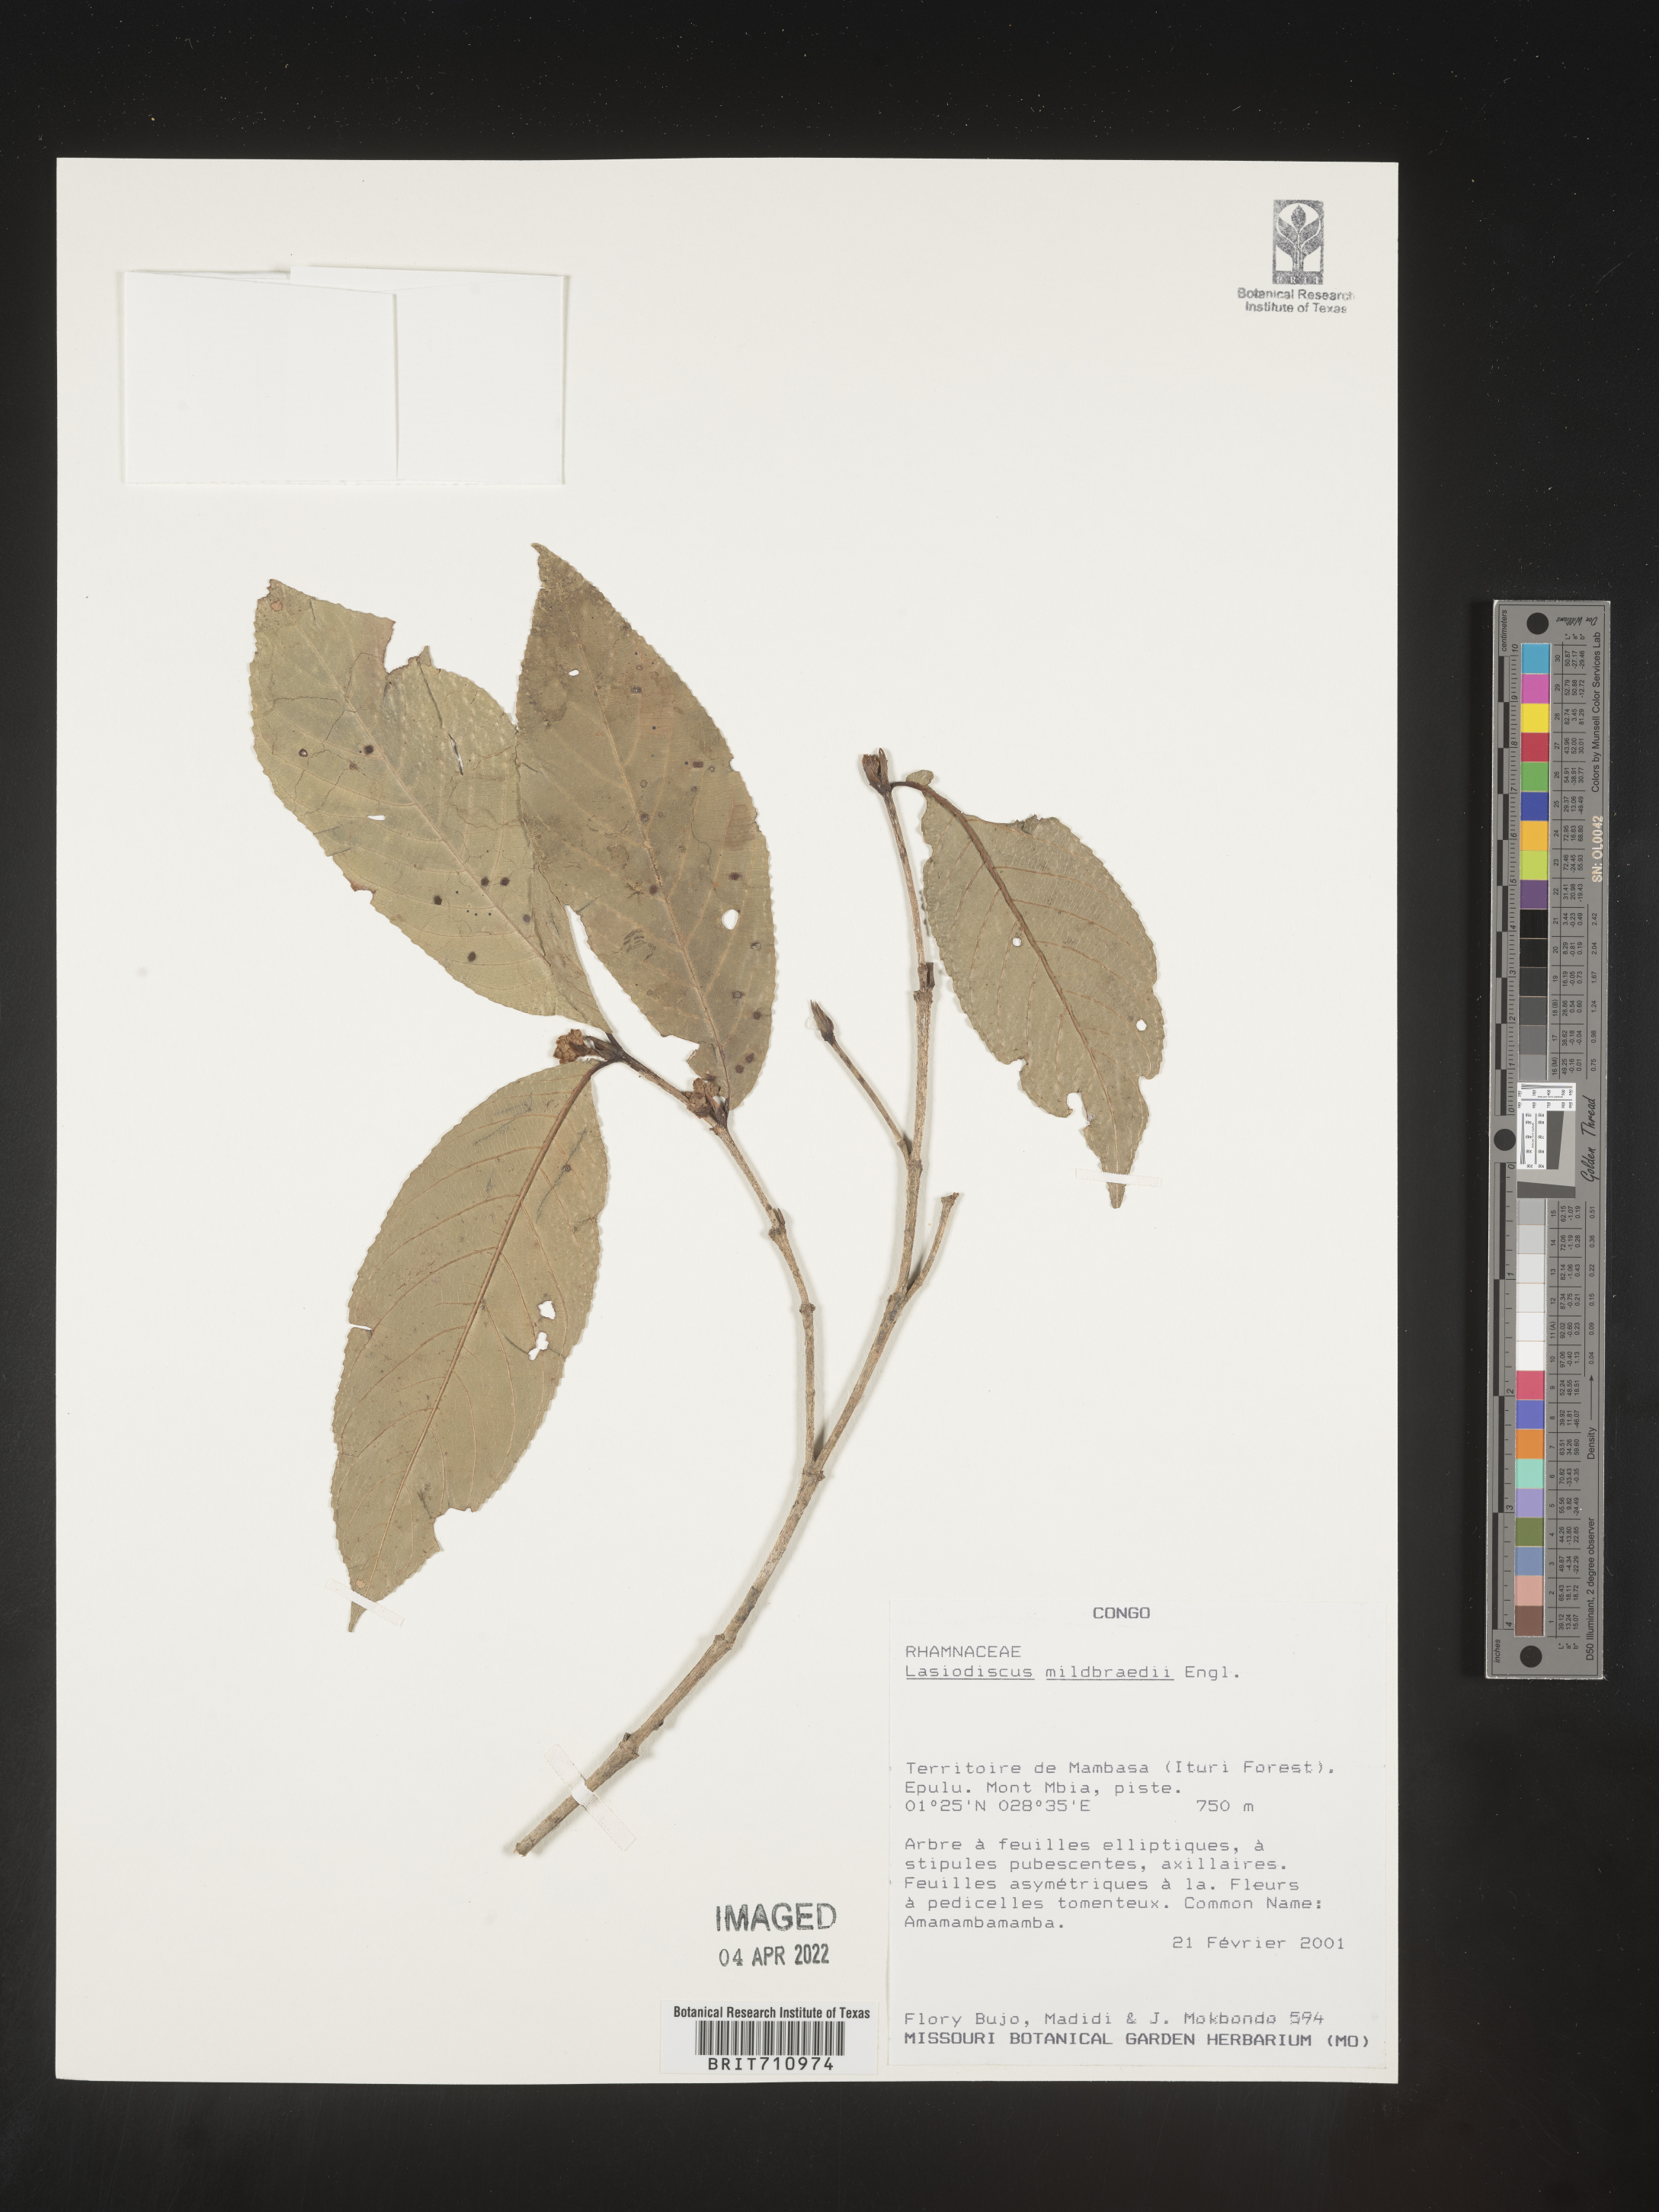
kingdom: Plantae
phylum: Tracheophyta
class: Magnoliopsida
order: Rosales
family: Rhamnaceae
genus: Lasiodiscus
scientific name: Lasiodiscus
